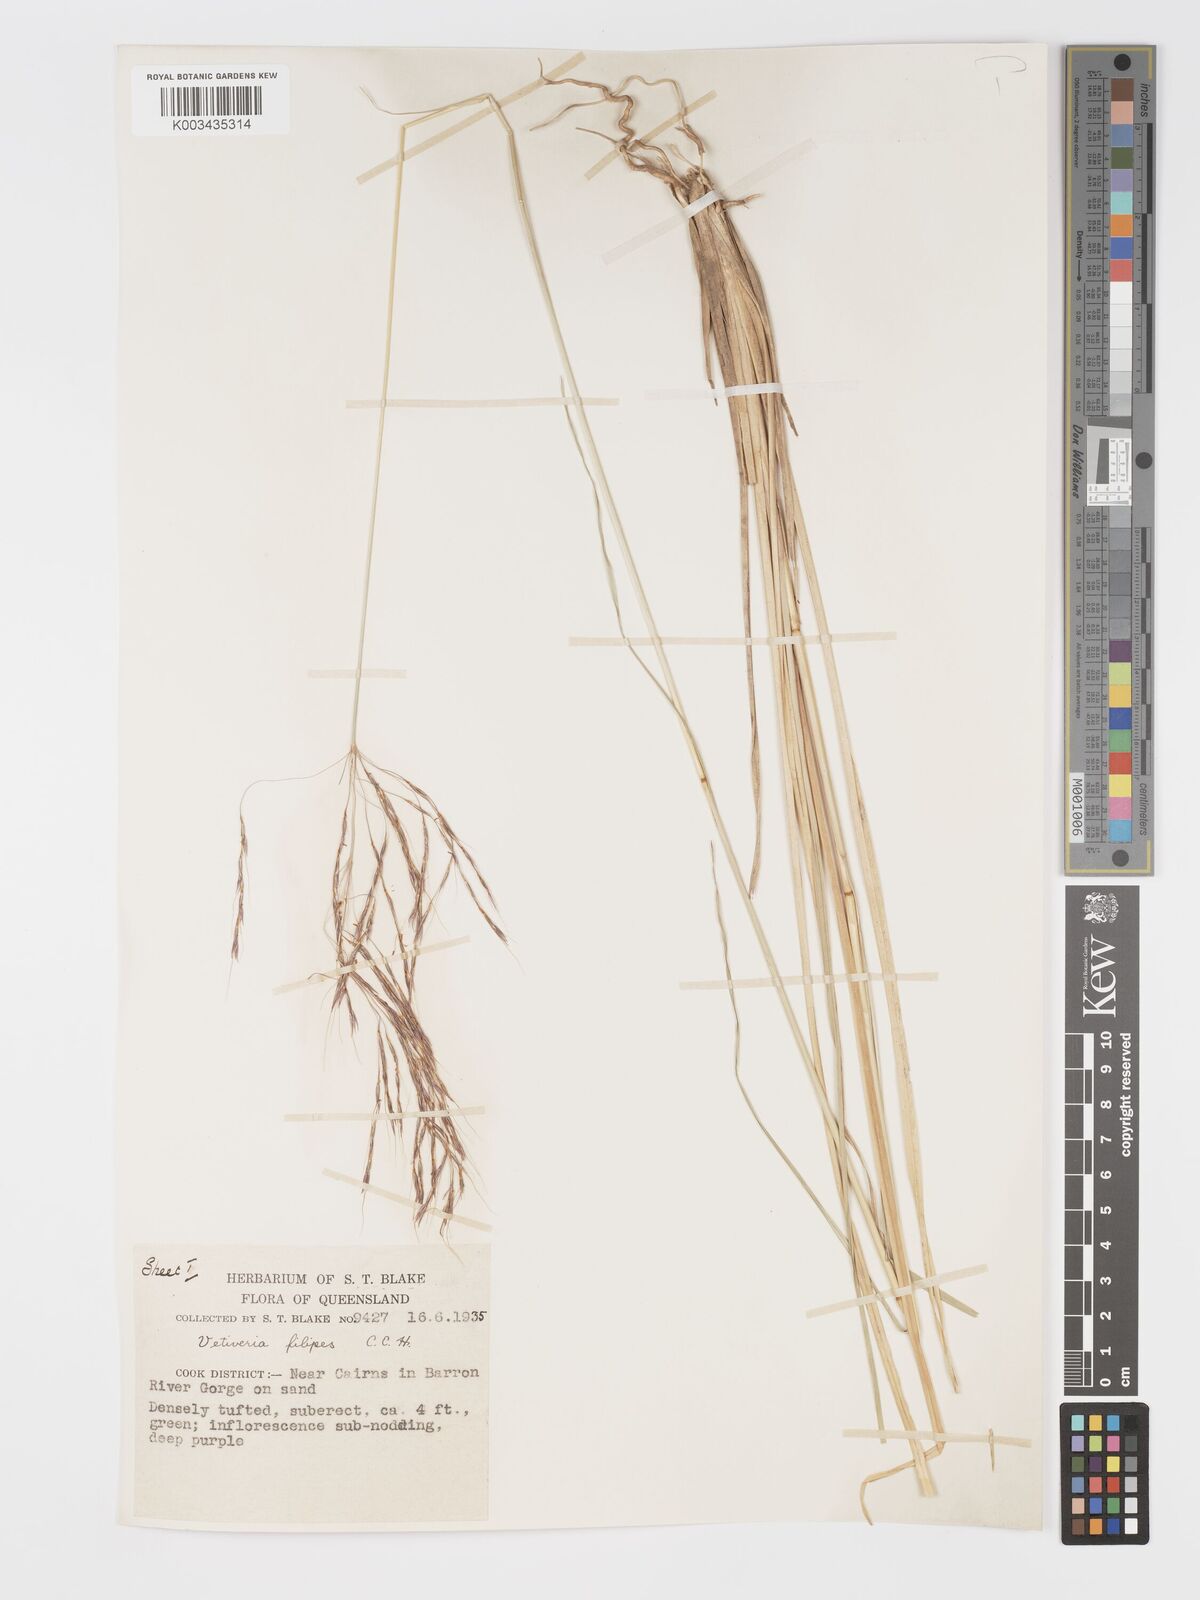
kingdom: Plantae
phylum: Tracheophyta
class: Liliopsida
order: Poales
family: Poaceae
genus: Chrysopogon
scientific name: Chrysopogon filipes
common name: Australian vetiver
